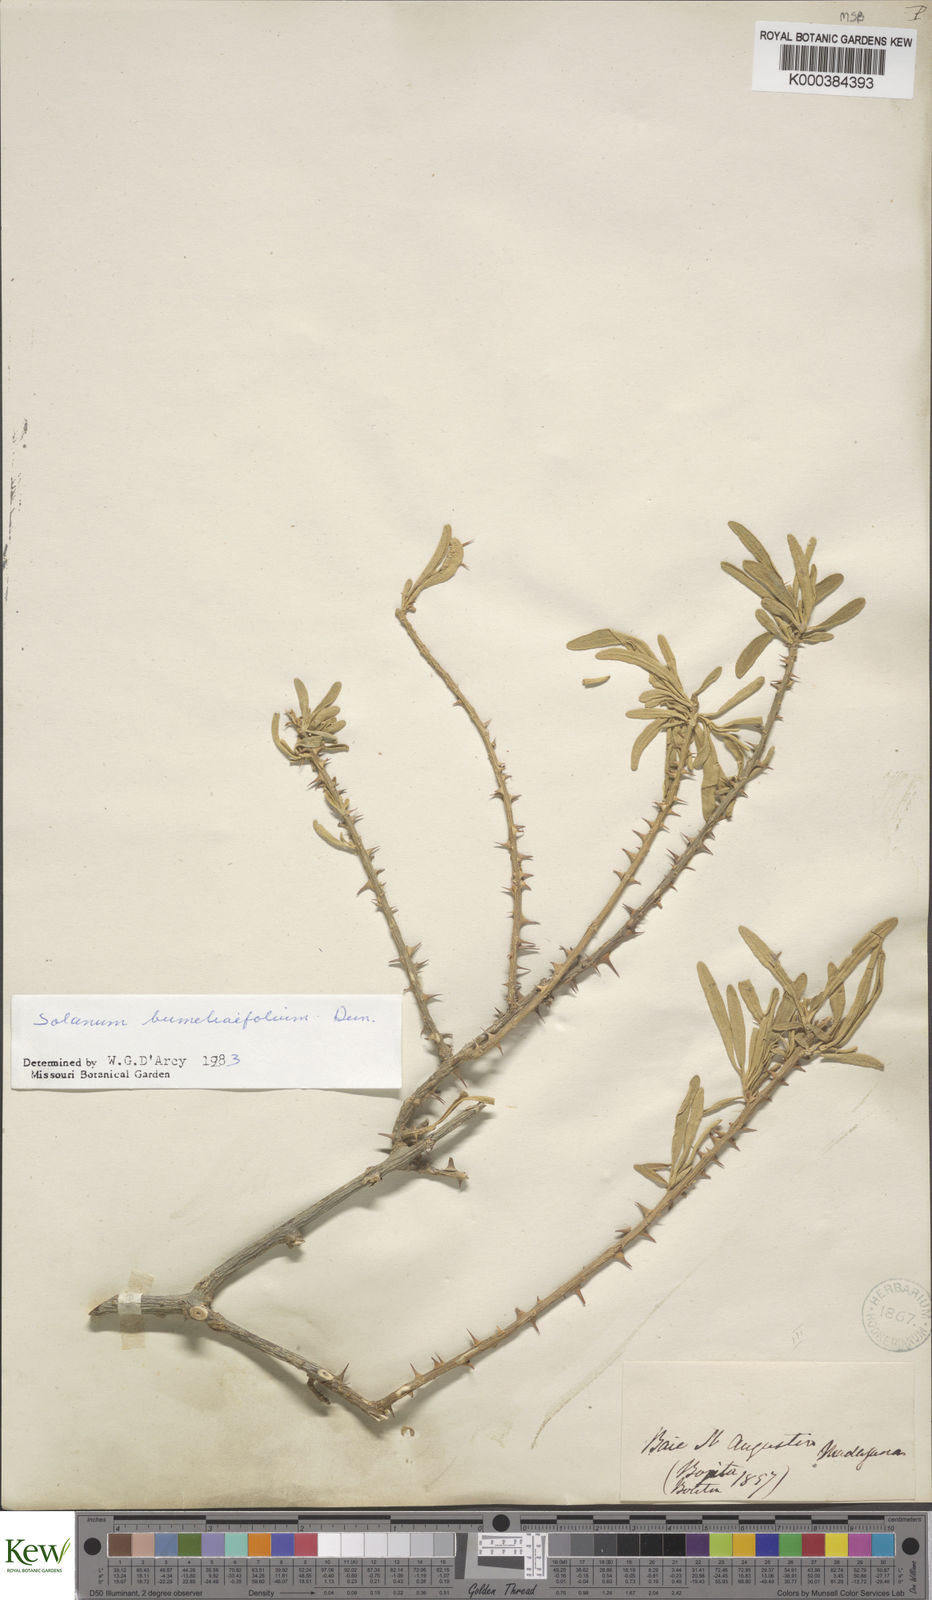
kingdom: Plantae
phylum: Tracheophyta
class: Magnoliopsida
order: Solanales
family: Solanaceae
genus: Solanum
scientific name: Solanum bumeliifolium
